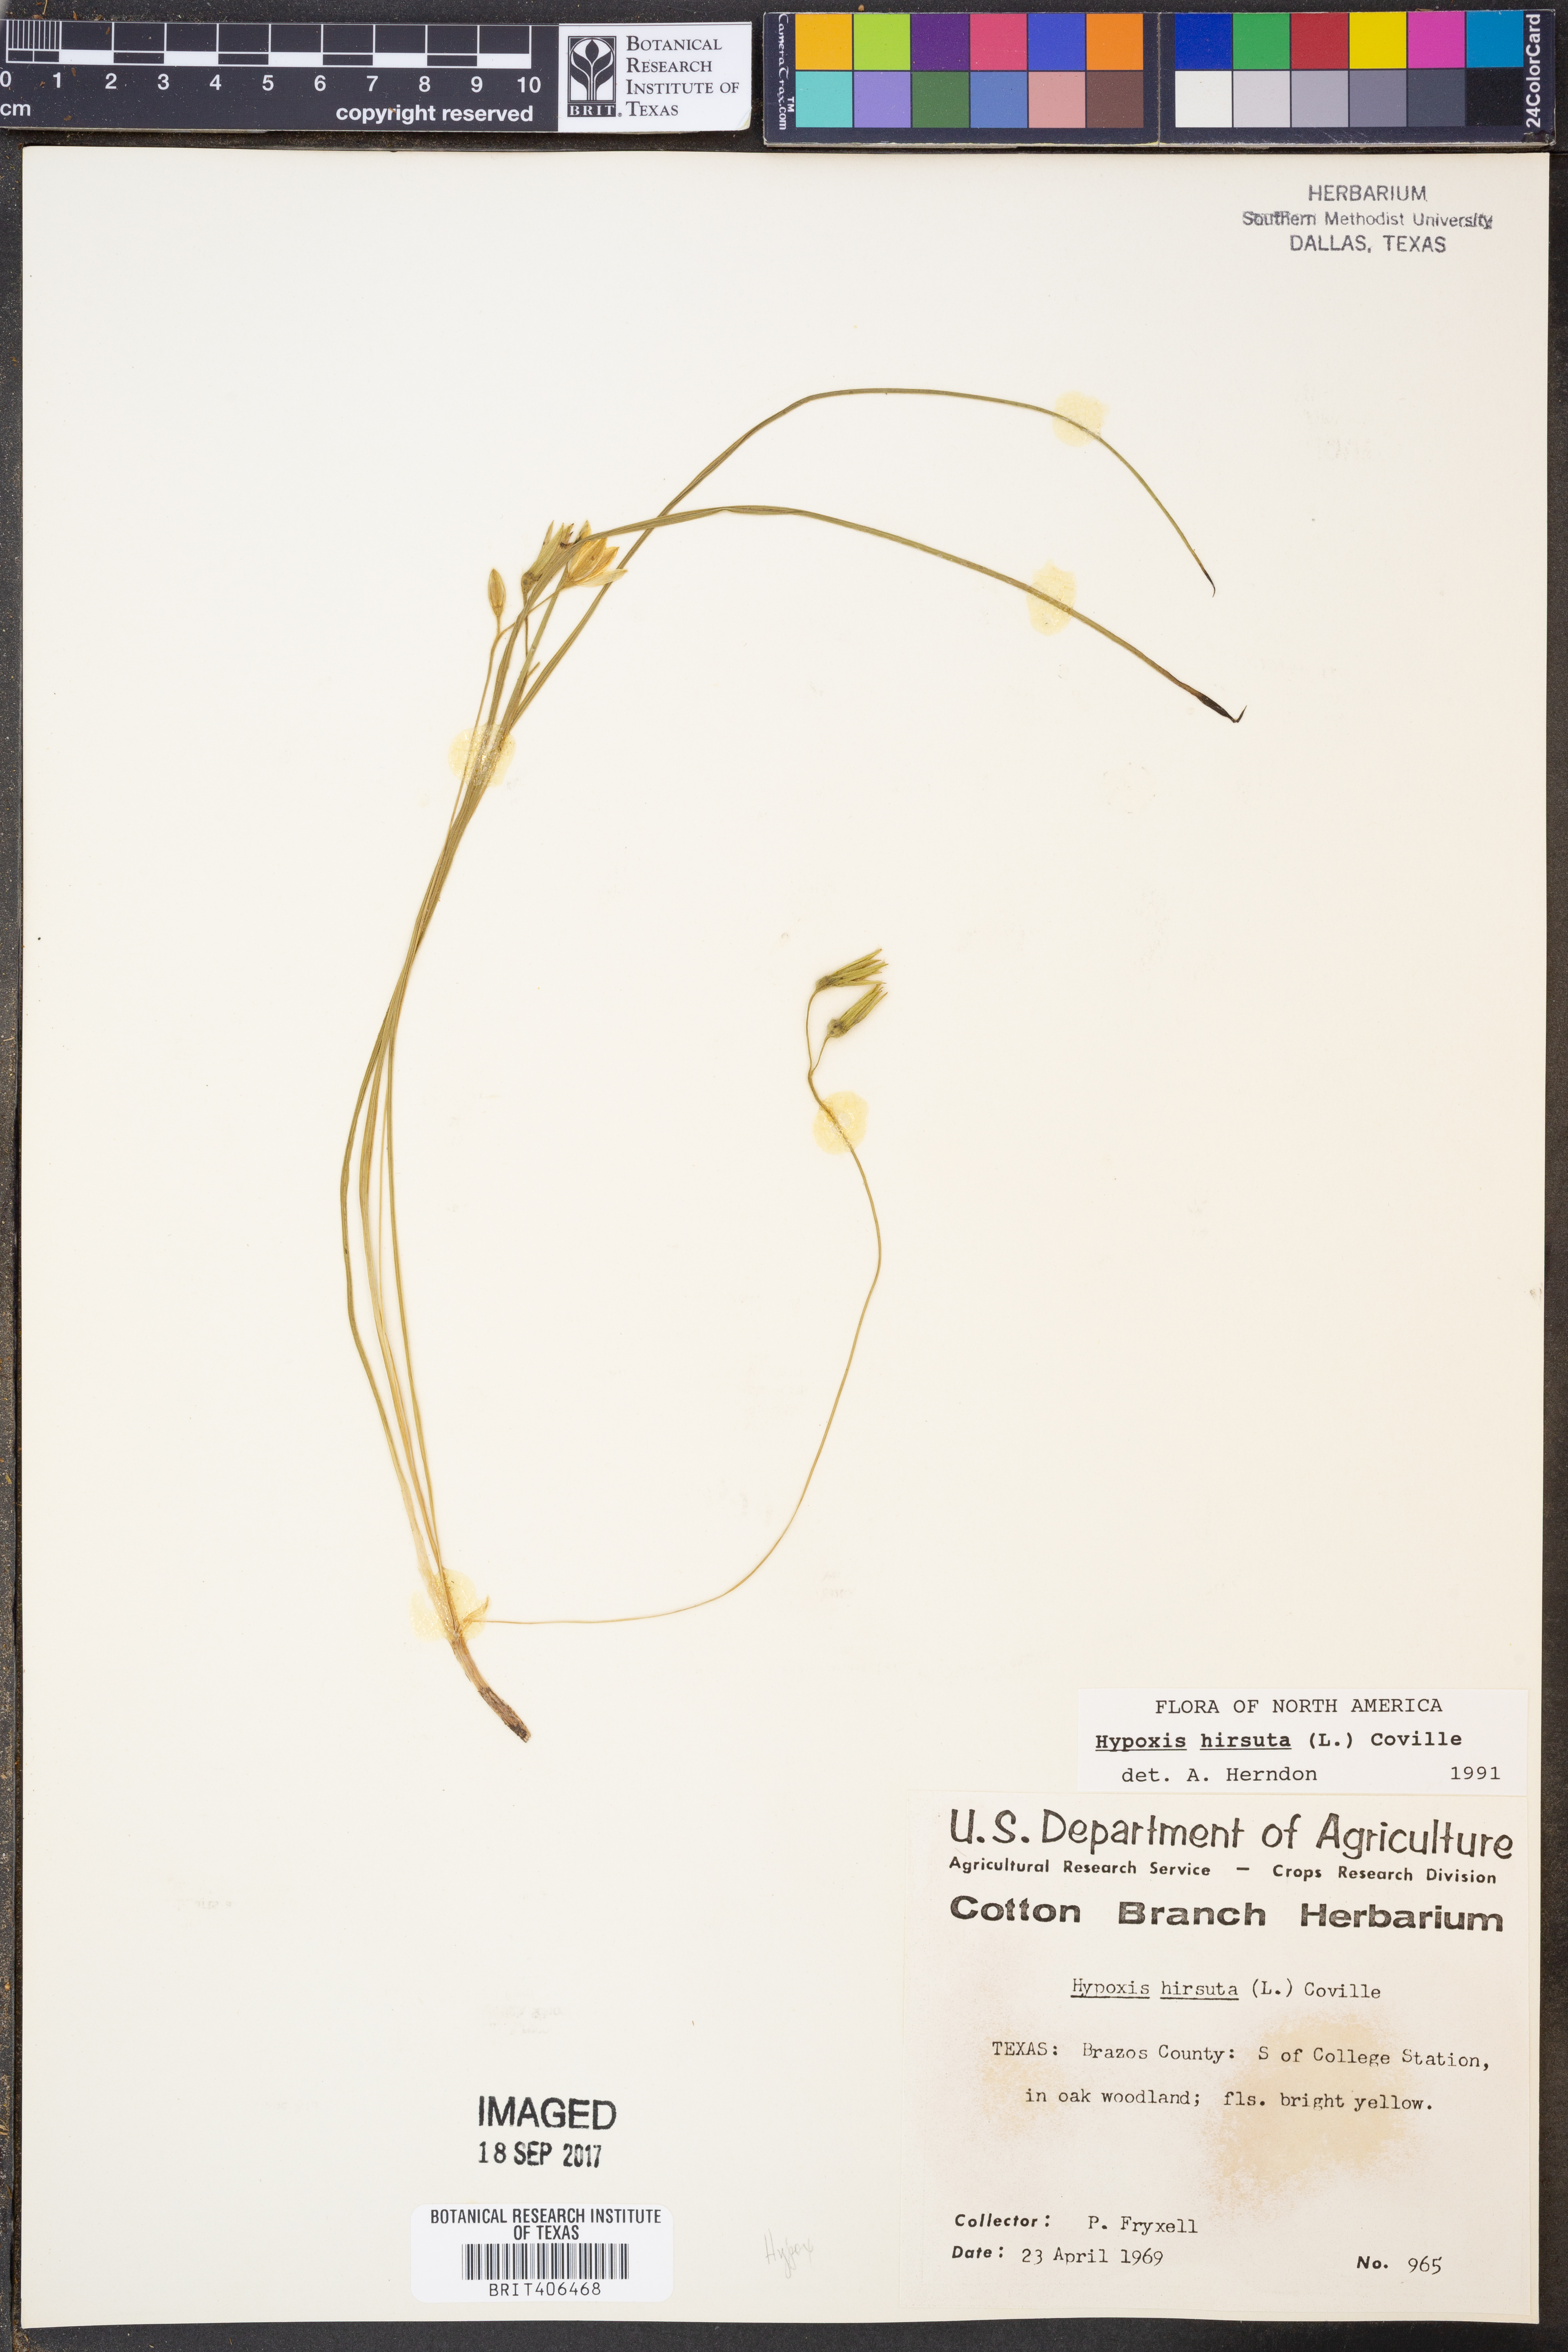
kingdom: Plantae
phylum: Tracheophyta
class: Liliopsida
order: Asparagales
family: Hypoxidaceae
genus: Hypoxis
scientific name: Hypoxis hirsuta
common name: Common goldstar
